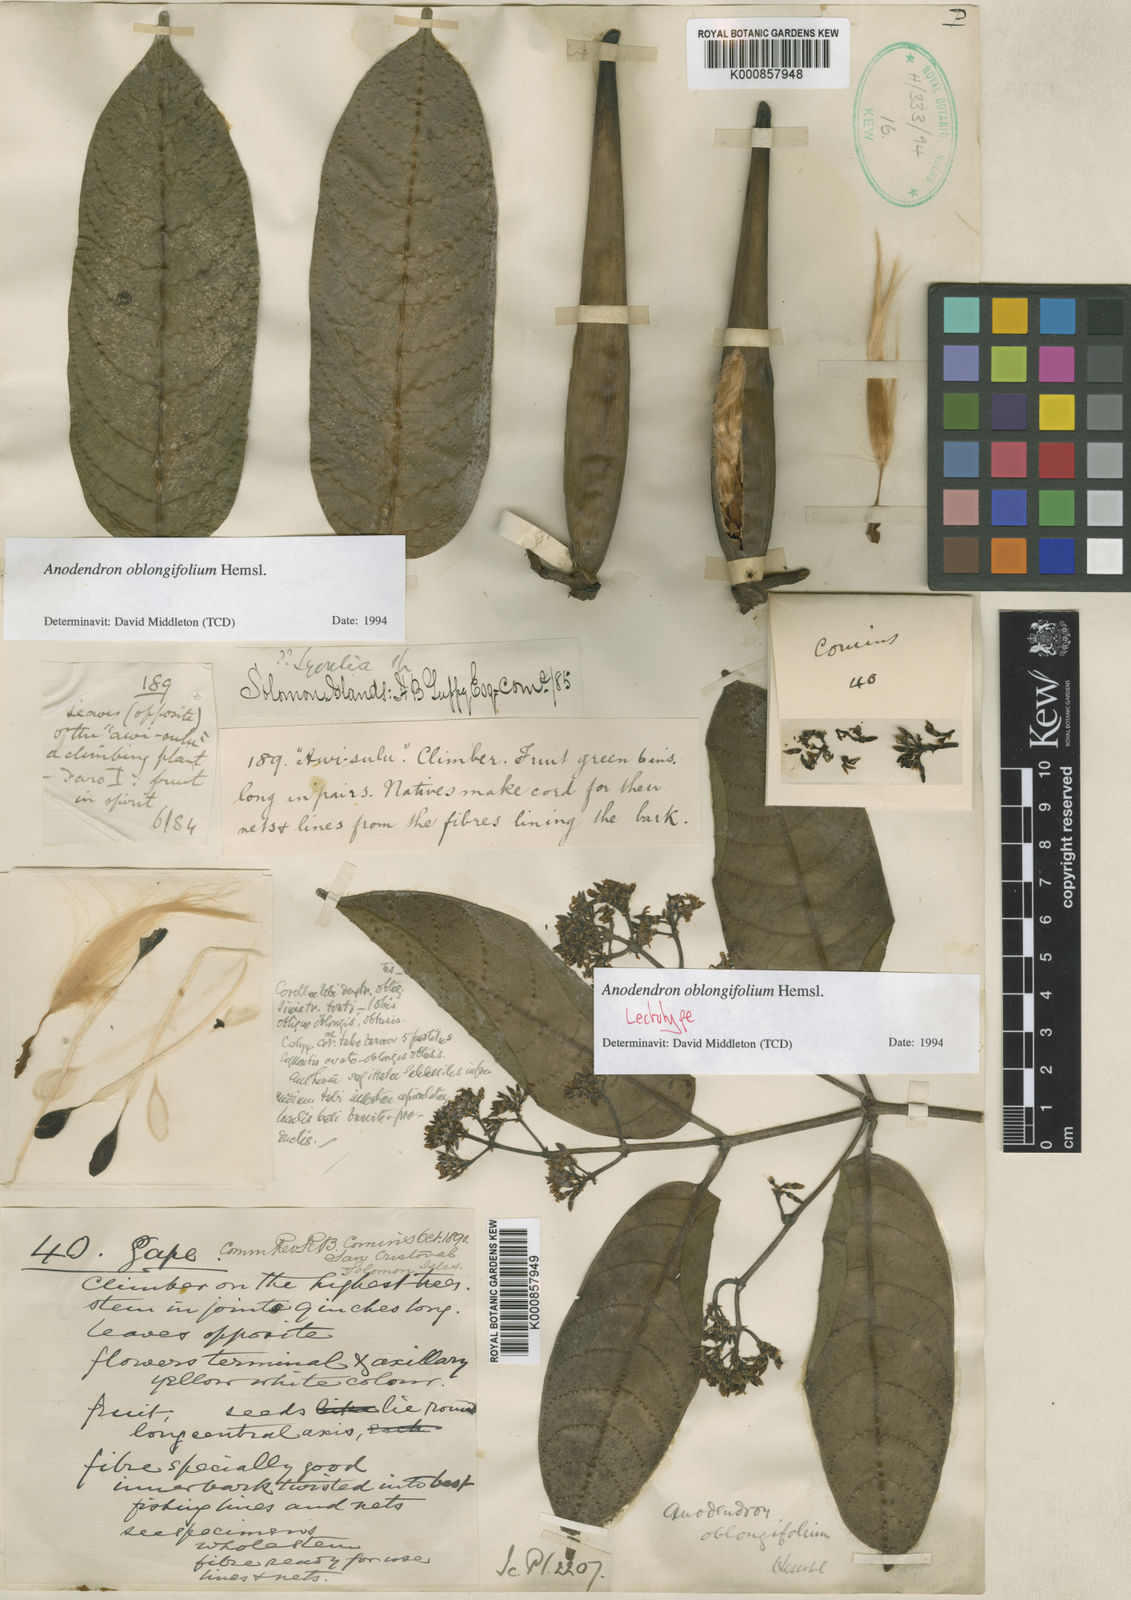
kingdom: Plantae
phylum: Tracheophyta
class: Magnoliopsida
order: Gentianales
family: Apocynaceae
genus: Anodendron
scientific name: Anodendron oblongifolium
